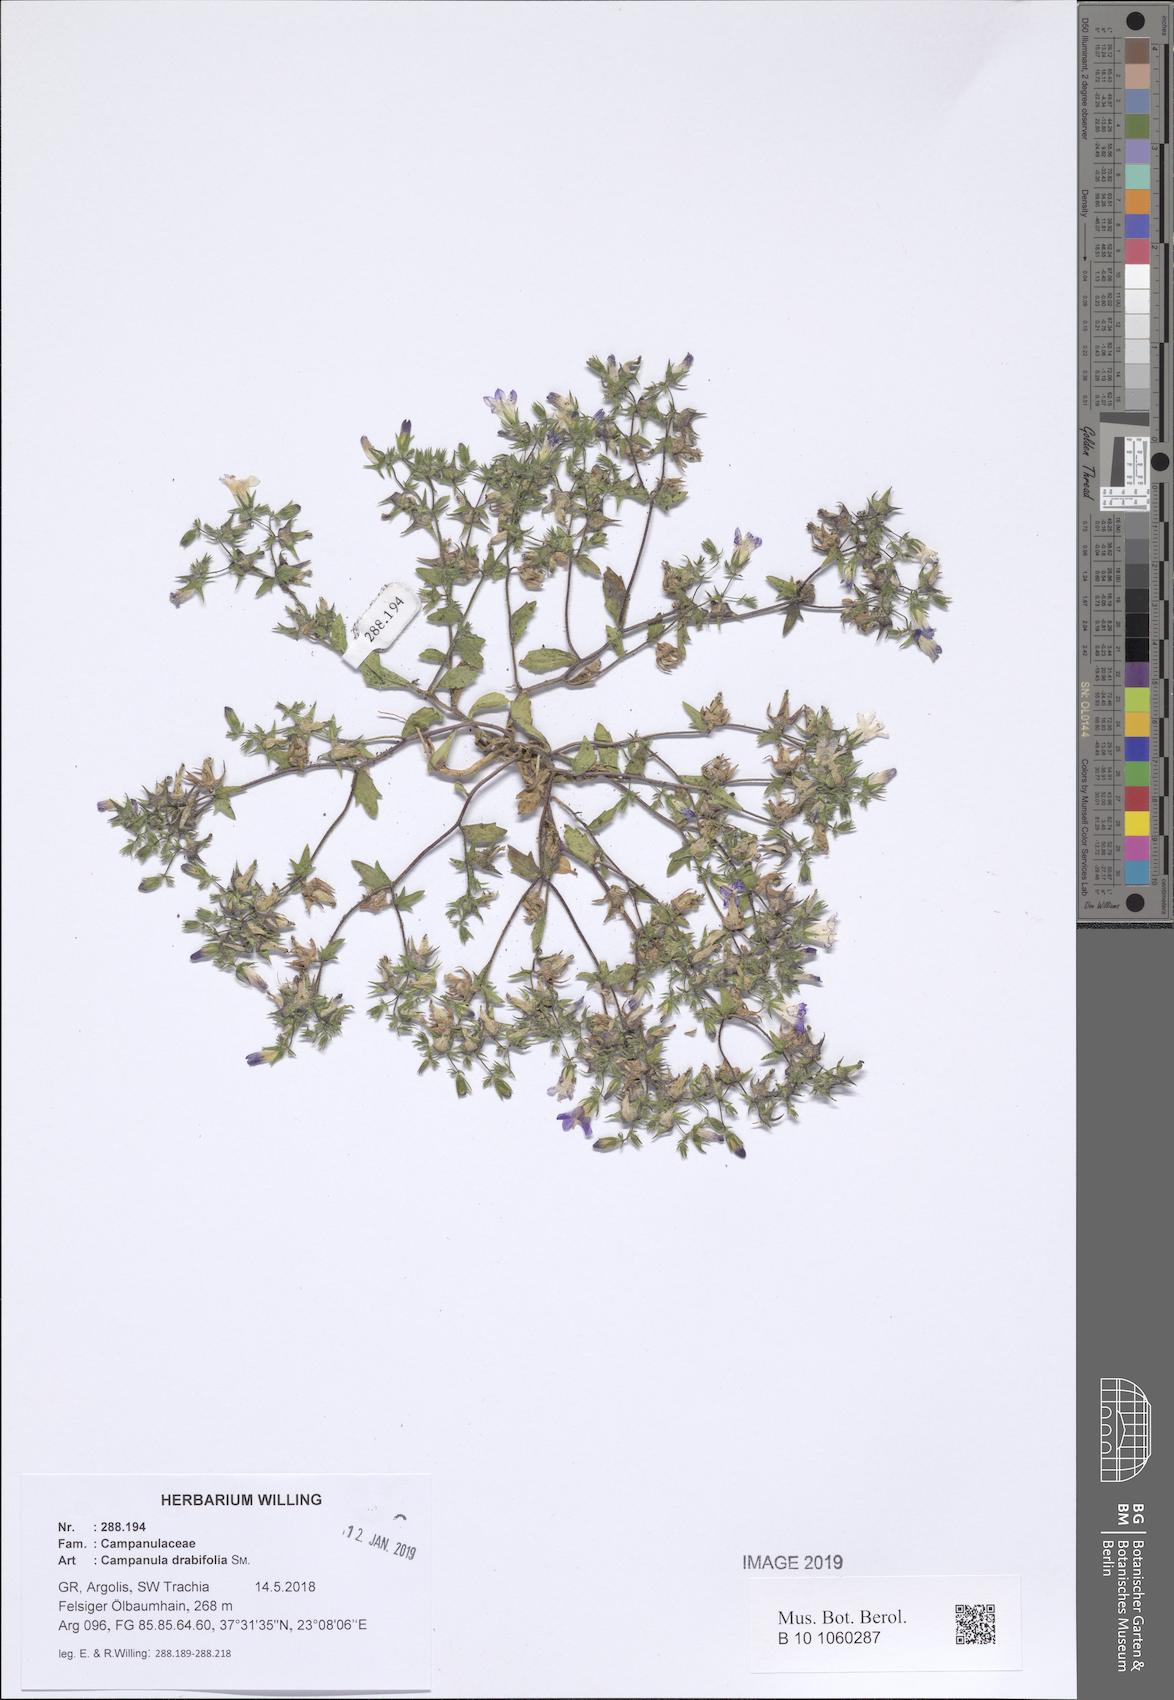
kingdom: Plantae
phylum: Tracheophyta
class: Magnoliopsida
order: Asterales
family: Campanulaceae
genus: Campanula
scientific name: Campanula drabifolia
